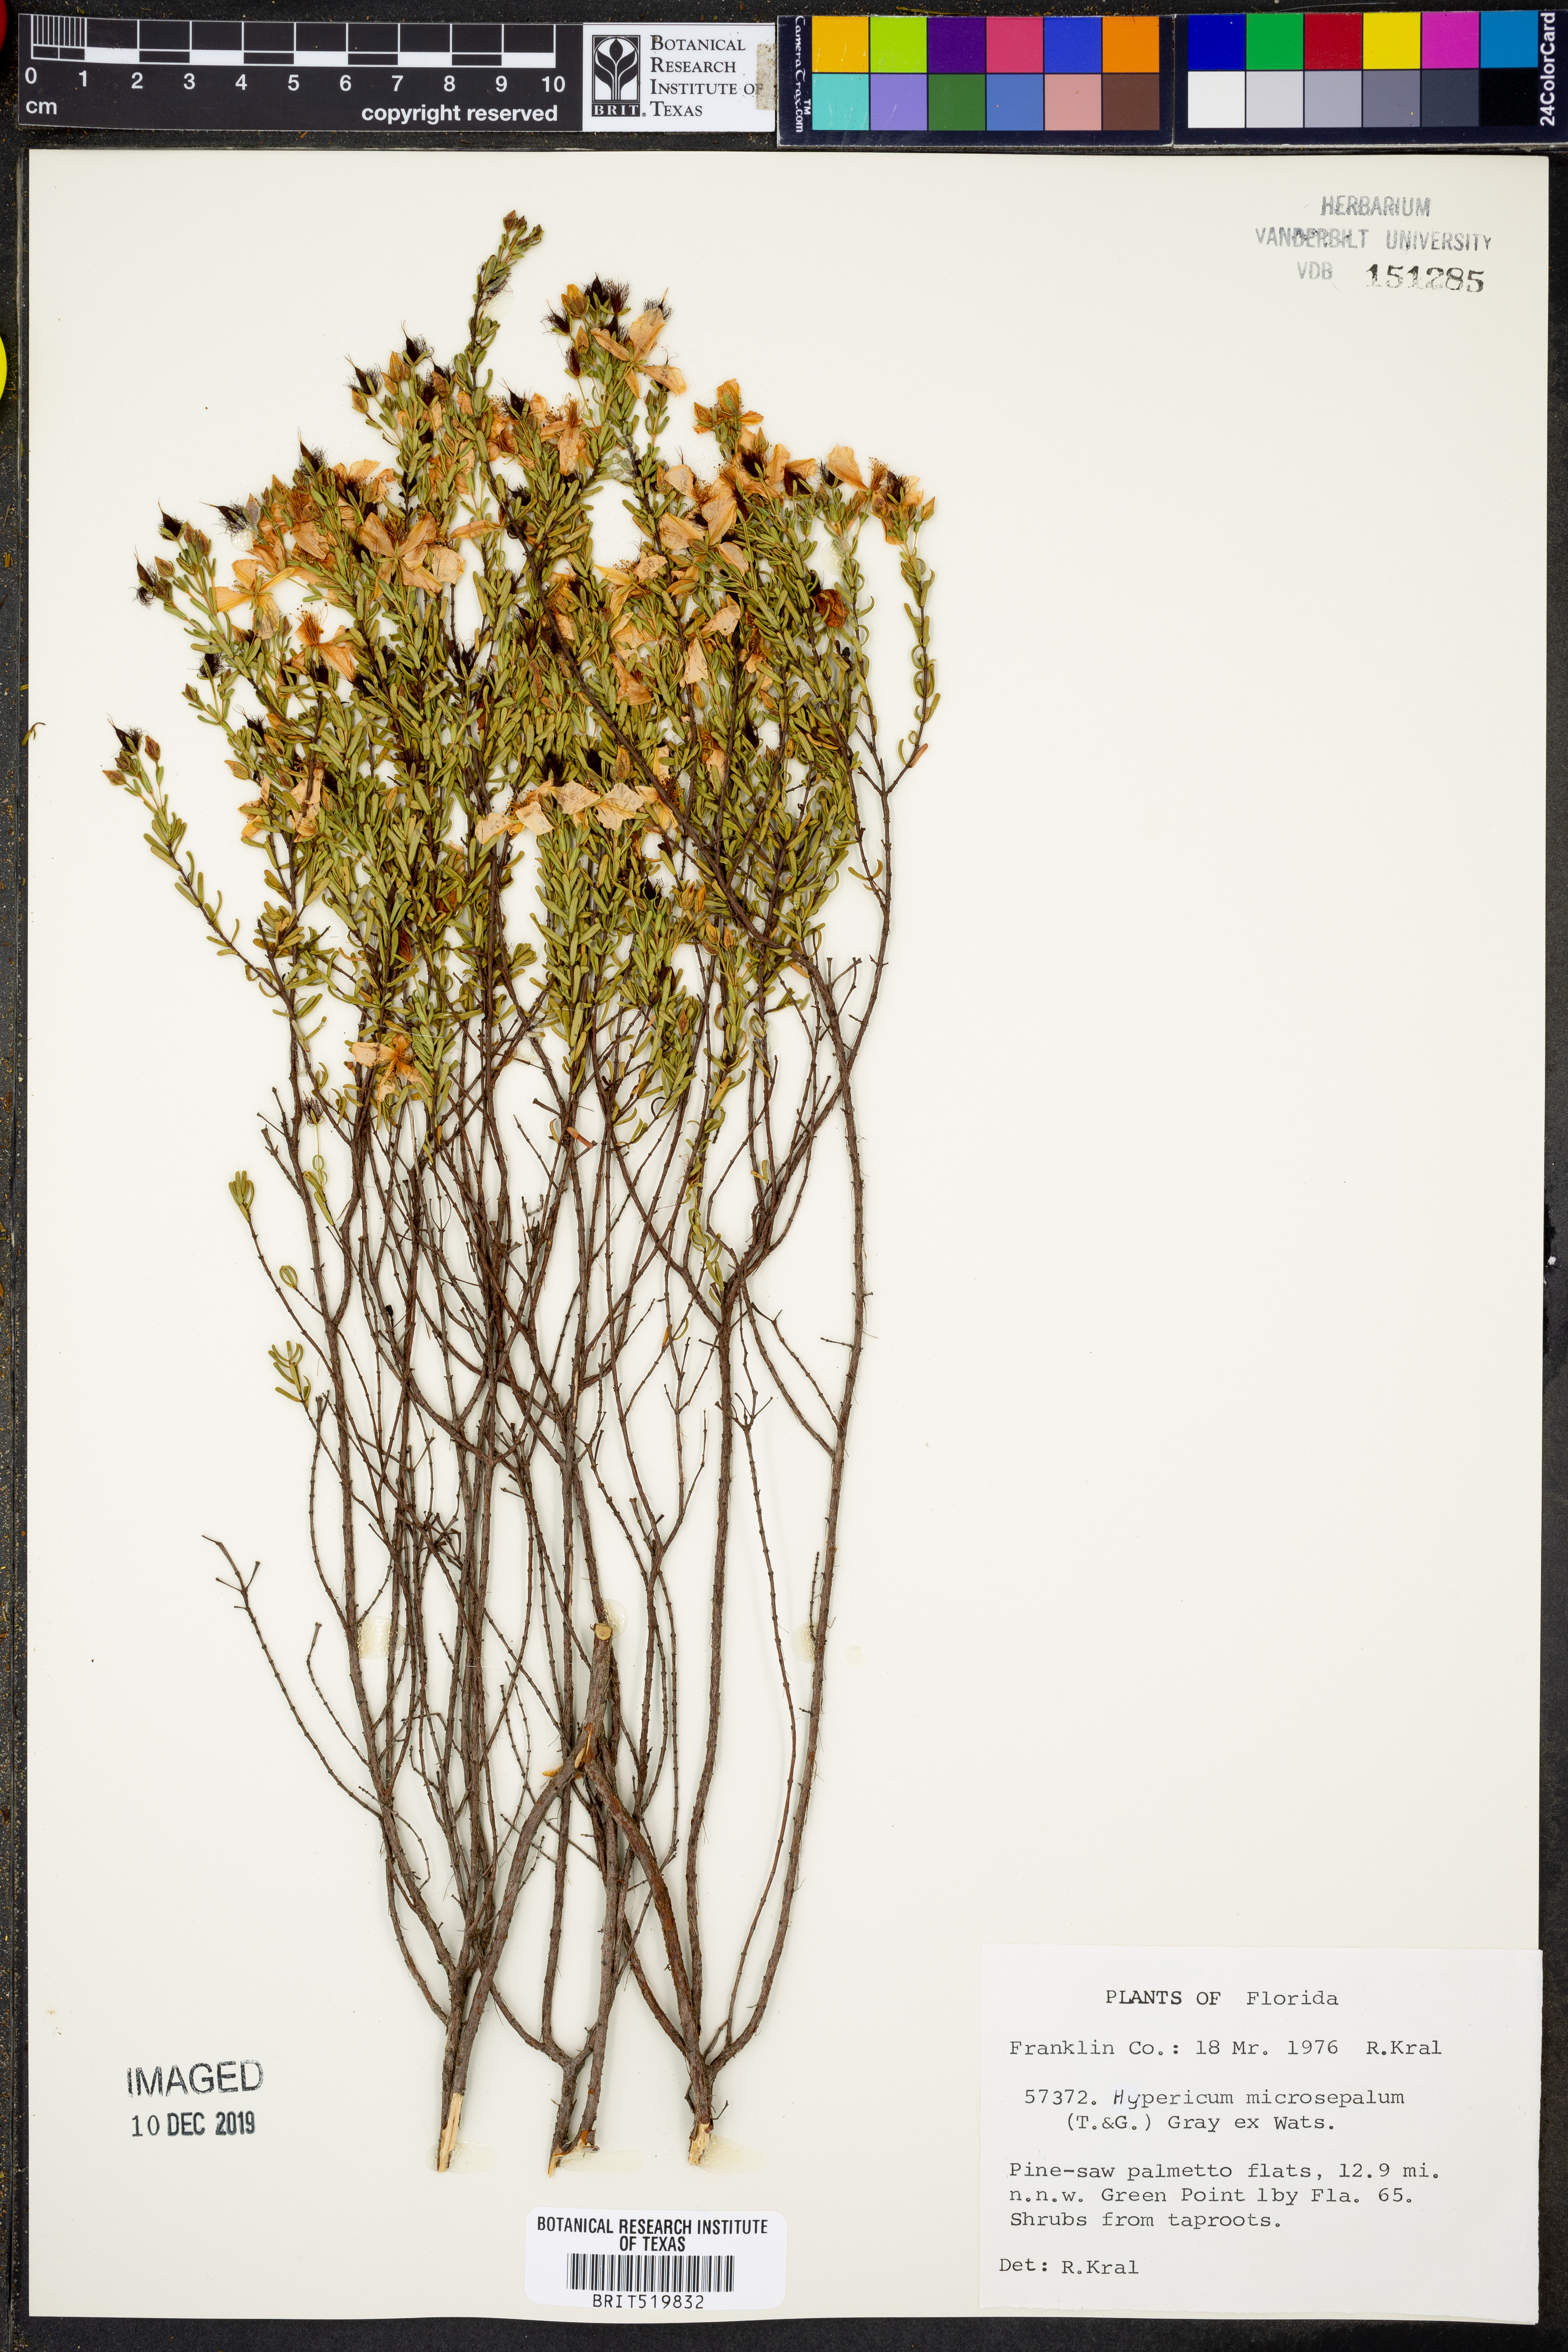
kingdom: Plantae
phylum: Tracheophyta
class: Magnoliopsida
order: Malpighiales
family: Hypericaceae
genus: Hypericum
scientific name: Hypericum microsepalum
